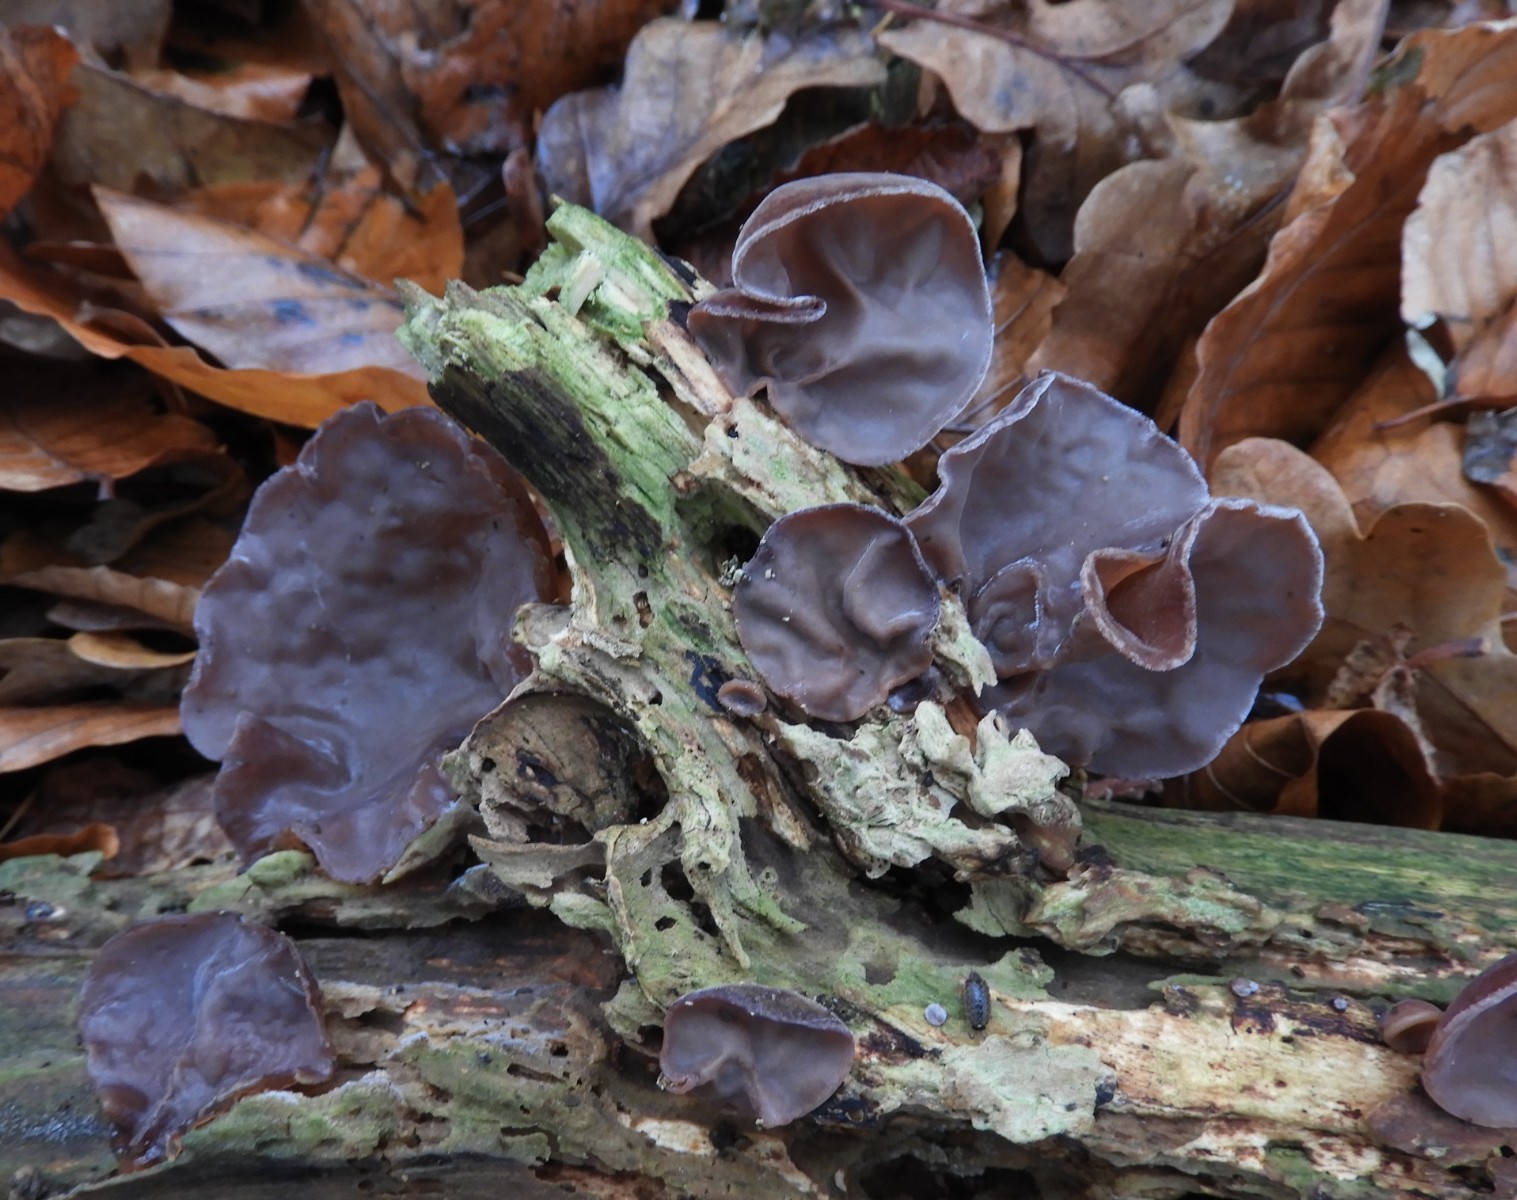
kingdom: Fungi
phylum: Basidiomycota
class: Agaricomycetes
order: Auriculariales
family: Auriculariaceae
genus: Auricularia
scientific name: Auricularia auricula-judae
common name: almindelig judasøre
